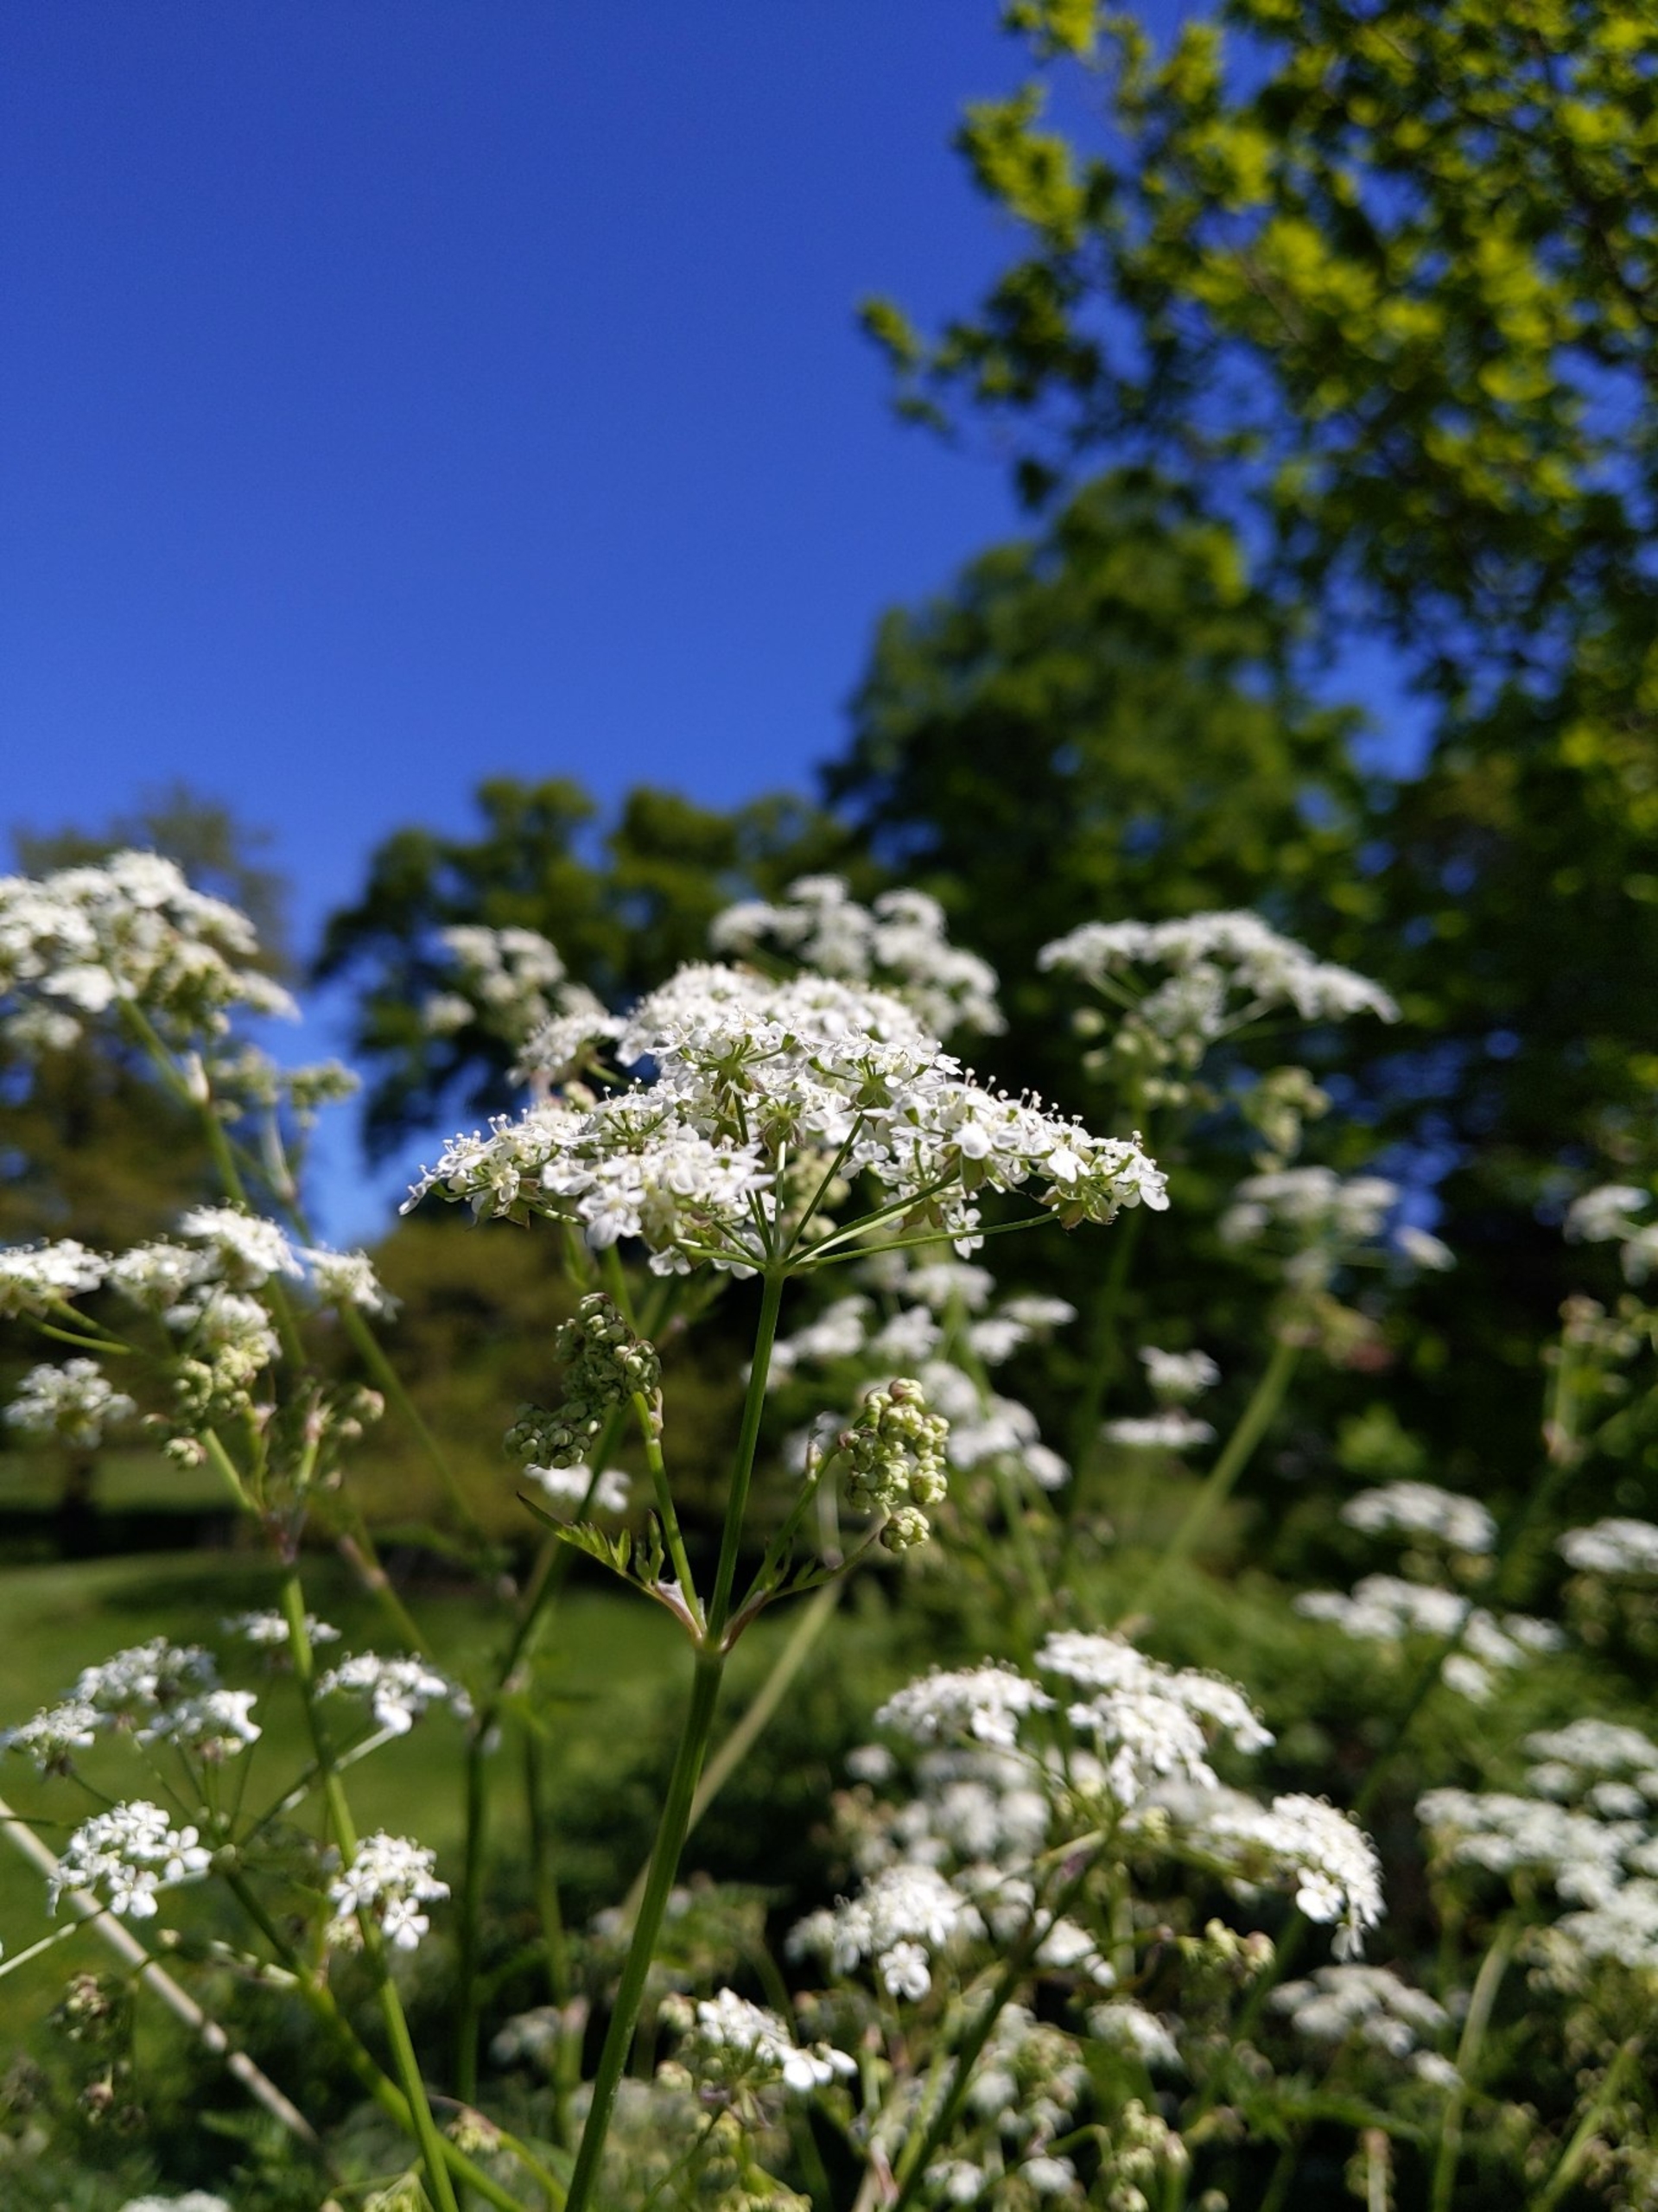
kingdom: Plantae
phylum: Tracheophyta
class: Magnoliopsida
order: Apiales
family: Apiaceae
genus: Anthriscus
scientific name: Anthriscus sylvestris
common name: Vild kørvel
